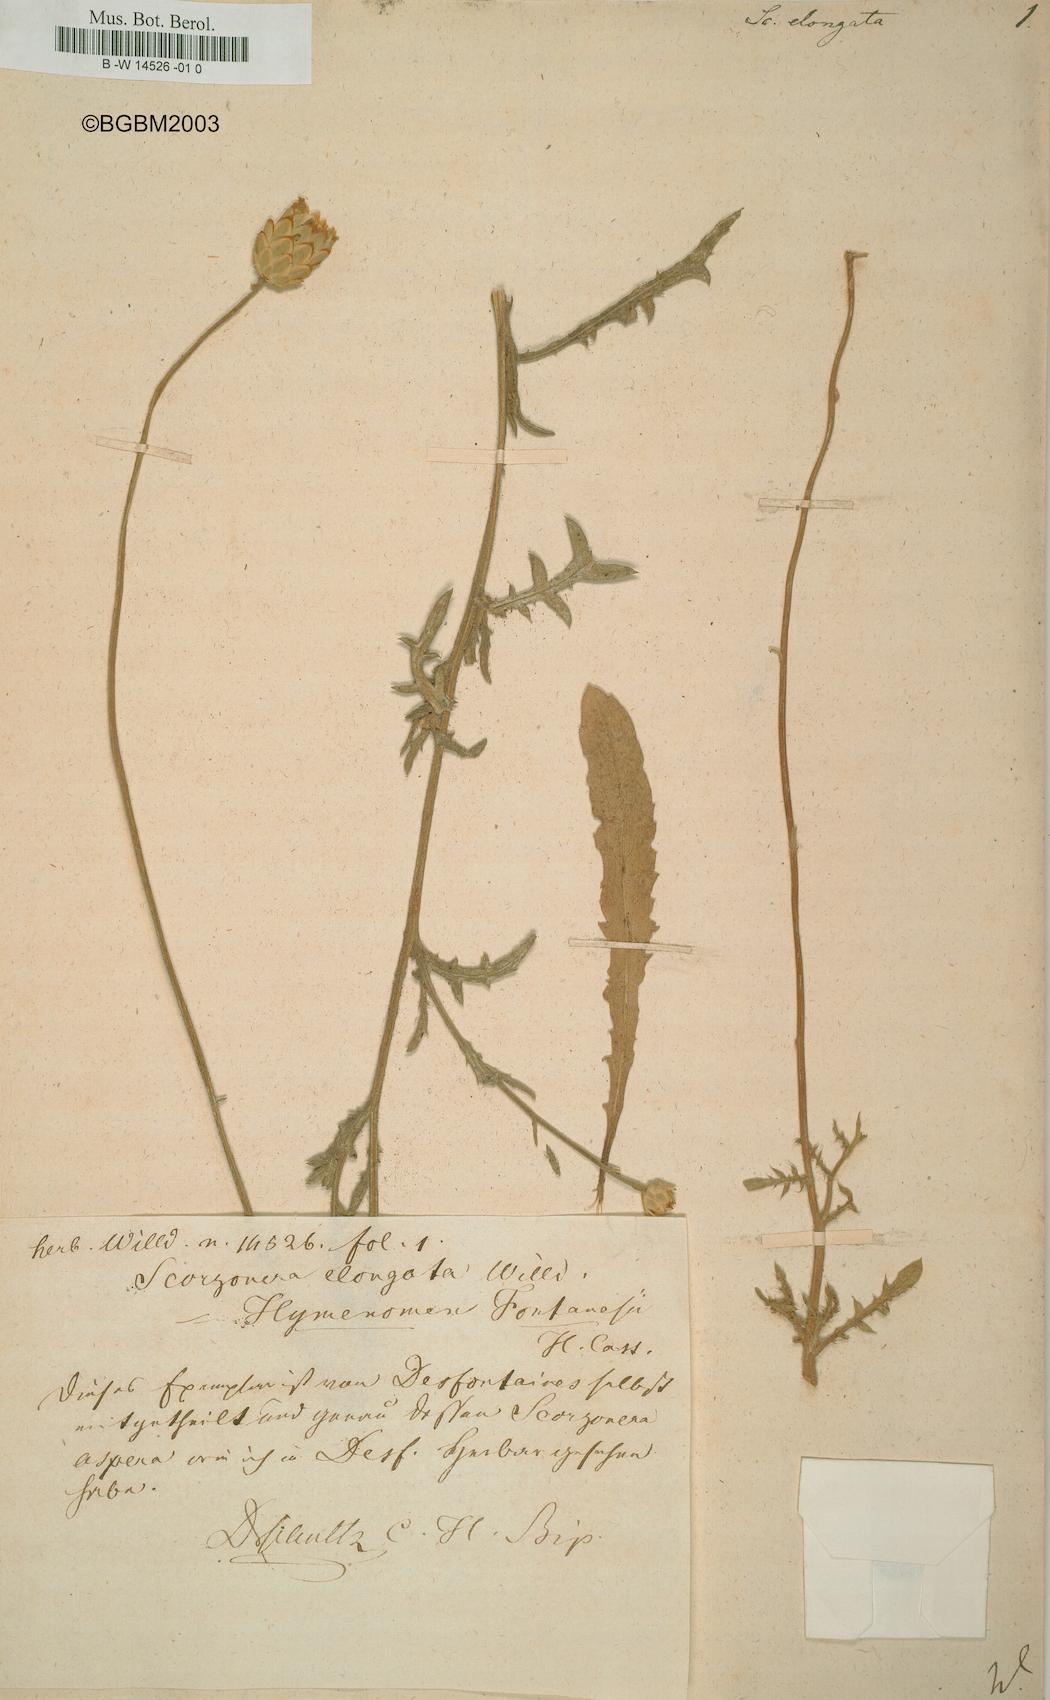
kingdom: Plantae
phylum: Tracheophyta
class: Magnoliopsida
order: Asterales
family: Asteraceae
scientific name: Asteraceae
